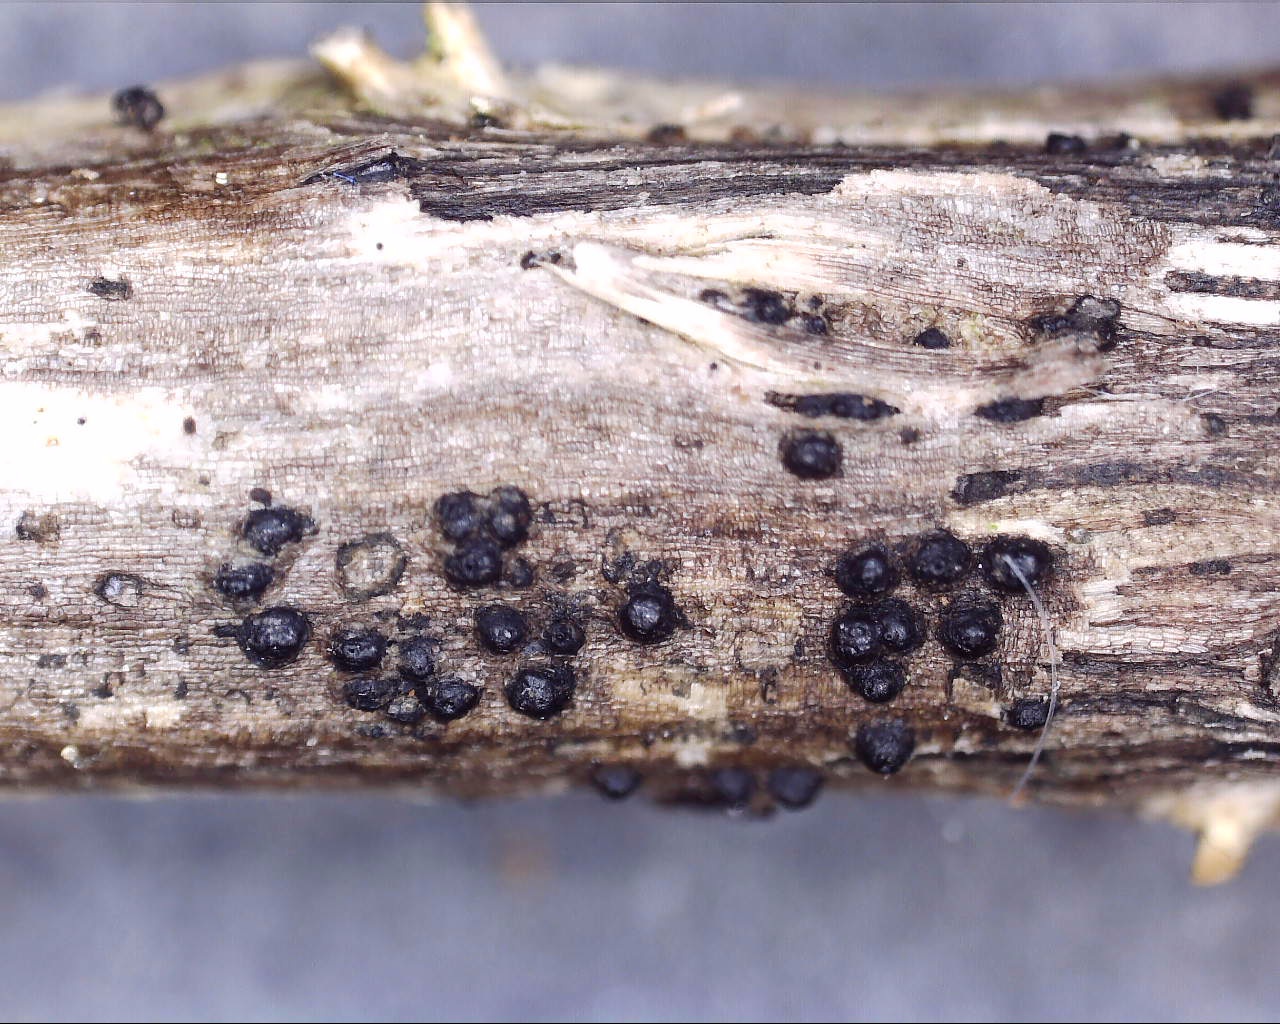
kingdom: Fungi
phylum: Ascomycota
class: Dothideomycetes
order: Pleosporales
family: Phaeosphaeriaceae
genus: Phaeosphaeria
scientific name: Phaeosphaeria sowerbyi
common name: kål-kulkegle
